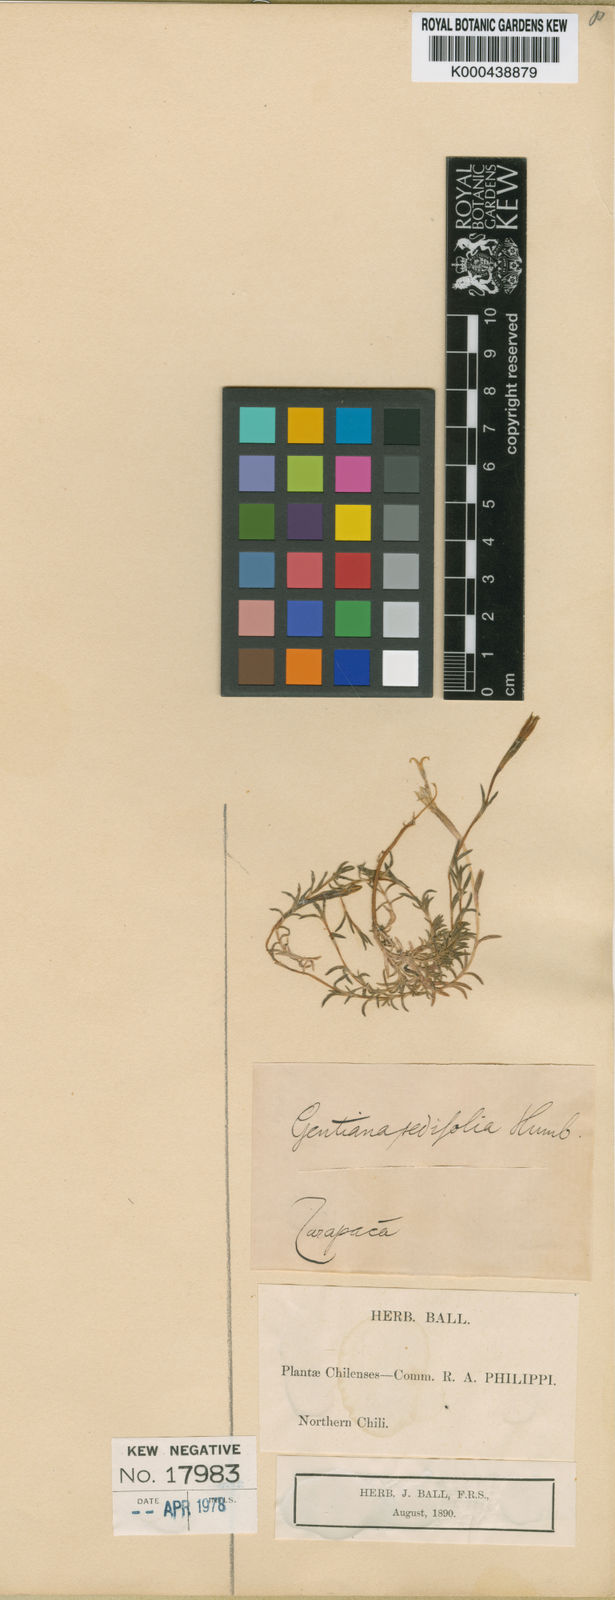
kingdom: Plantae
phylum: Tracheophyta
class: Magnoliopsida
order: Gentianales
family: Gentianaceae
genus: Gentiana
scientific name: Gentiana gayi
